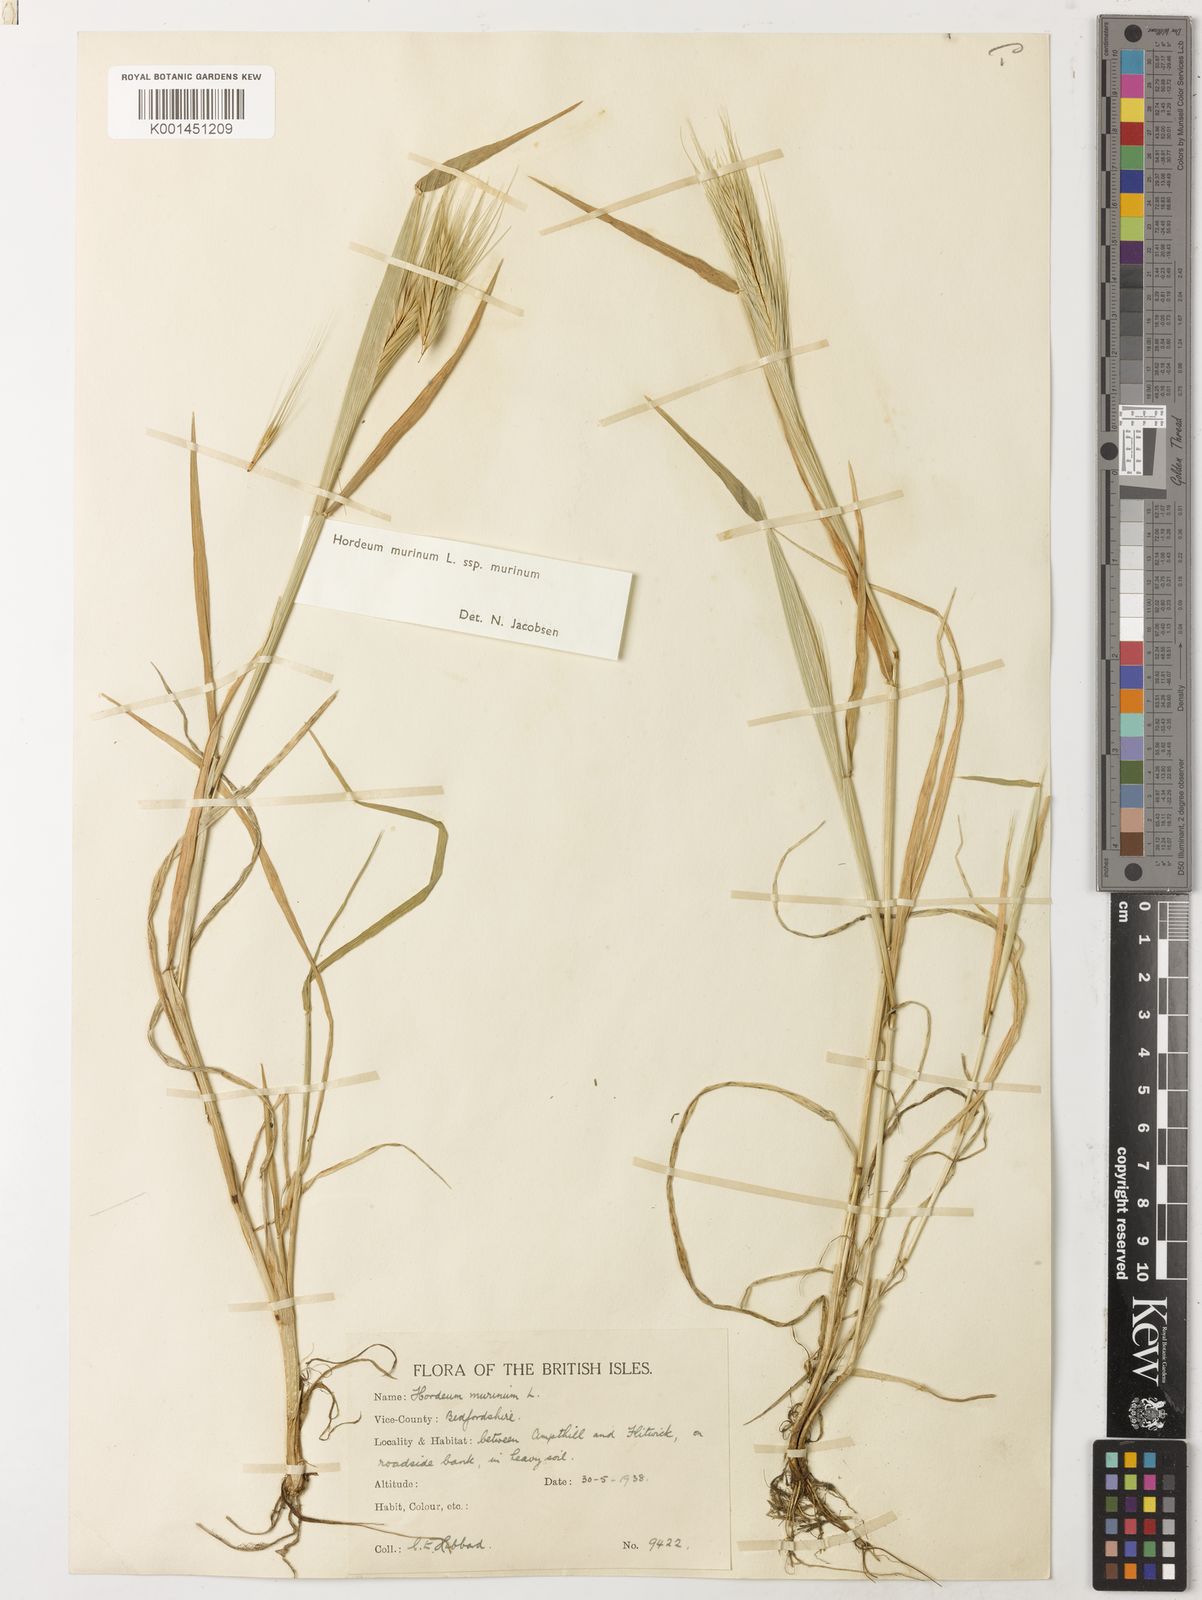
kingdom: Plantae
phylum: Tracheophyta
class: Liliopsida
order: Poales
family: Poaceae
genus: Hordeum
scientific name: Hordeum murinum
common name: Wall barley
